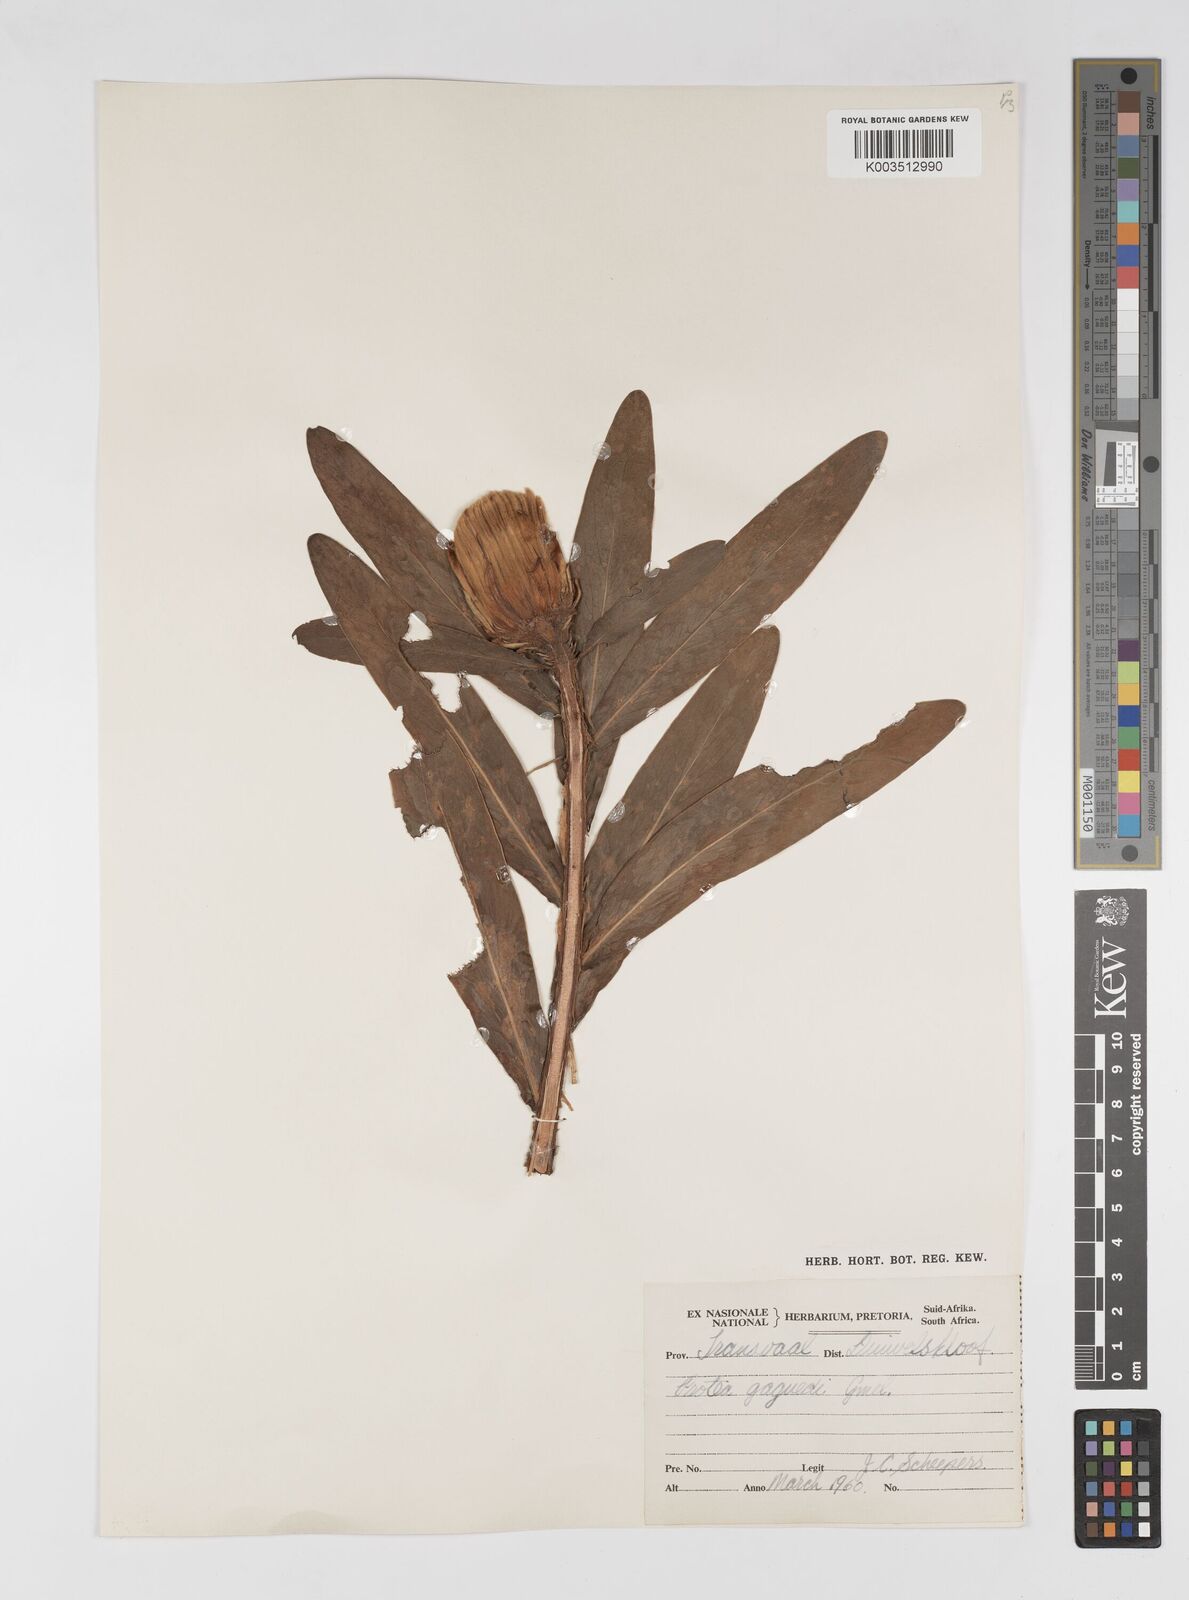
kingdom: Plantae
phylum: Tracheophyta
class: Magnoliopsida
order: Proteales
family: Proteaceae
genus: Protea
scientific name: Protea gaguedi
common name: African protea
